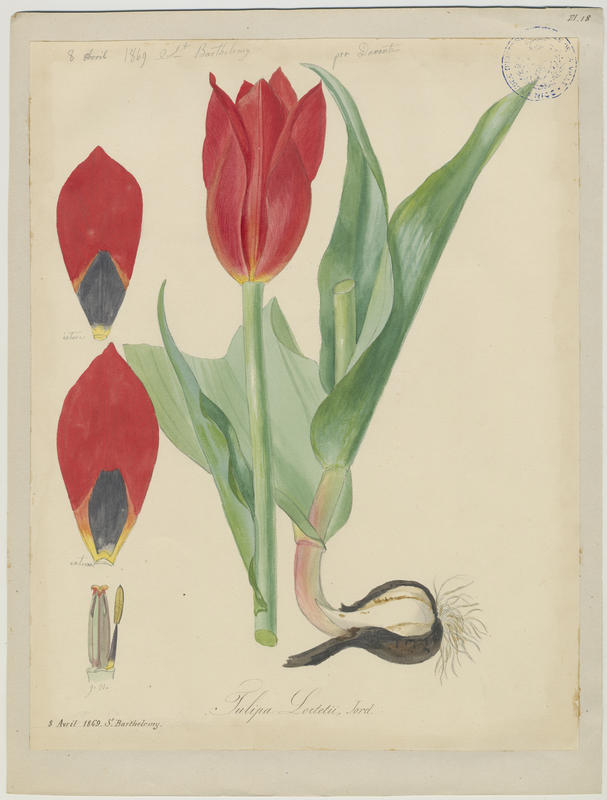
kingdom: Plantae
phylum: Tracheophyta
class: Liliopsida
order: Liliales
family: Liliaceae
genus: Tulipa
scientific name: Tulipa agenensis
